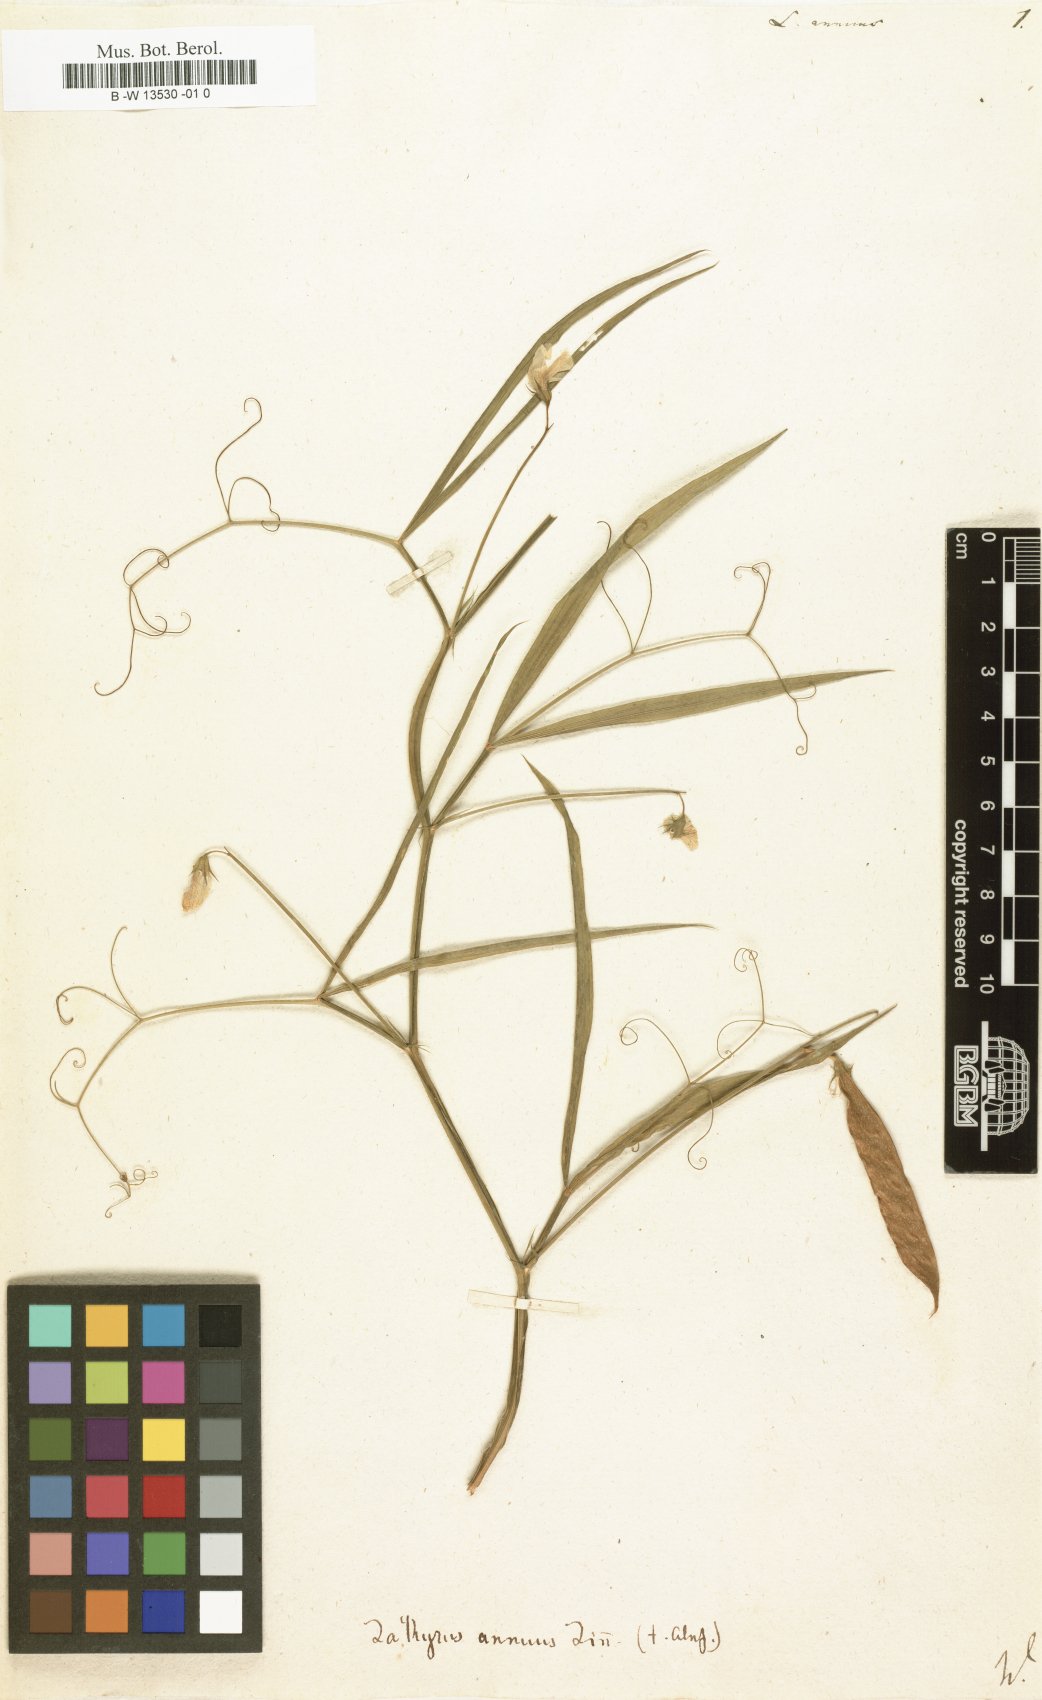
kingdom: Plantae
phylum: Tracheophyta
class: Magnoliopsida
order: Fabales
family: Fabaceae
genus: Lathyrus
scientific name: Lathyrus annuus
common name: Fodder pea
